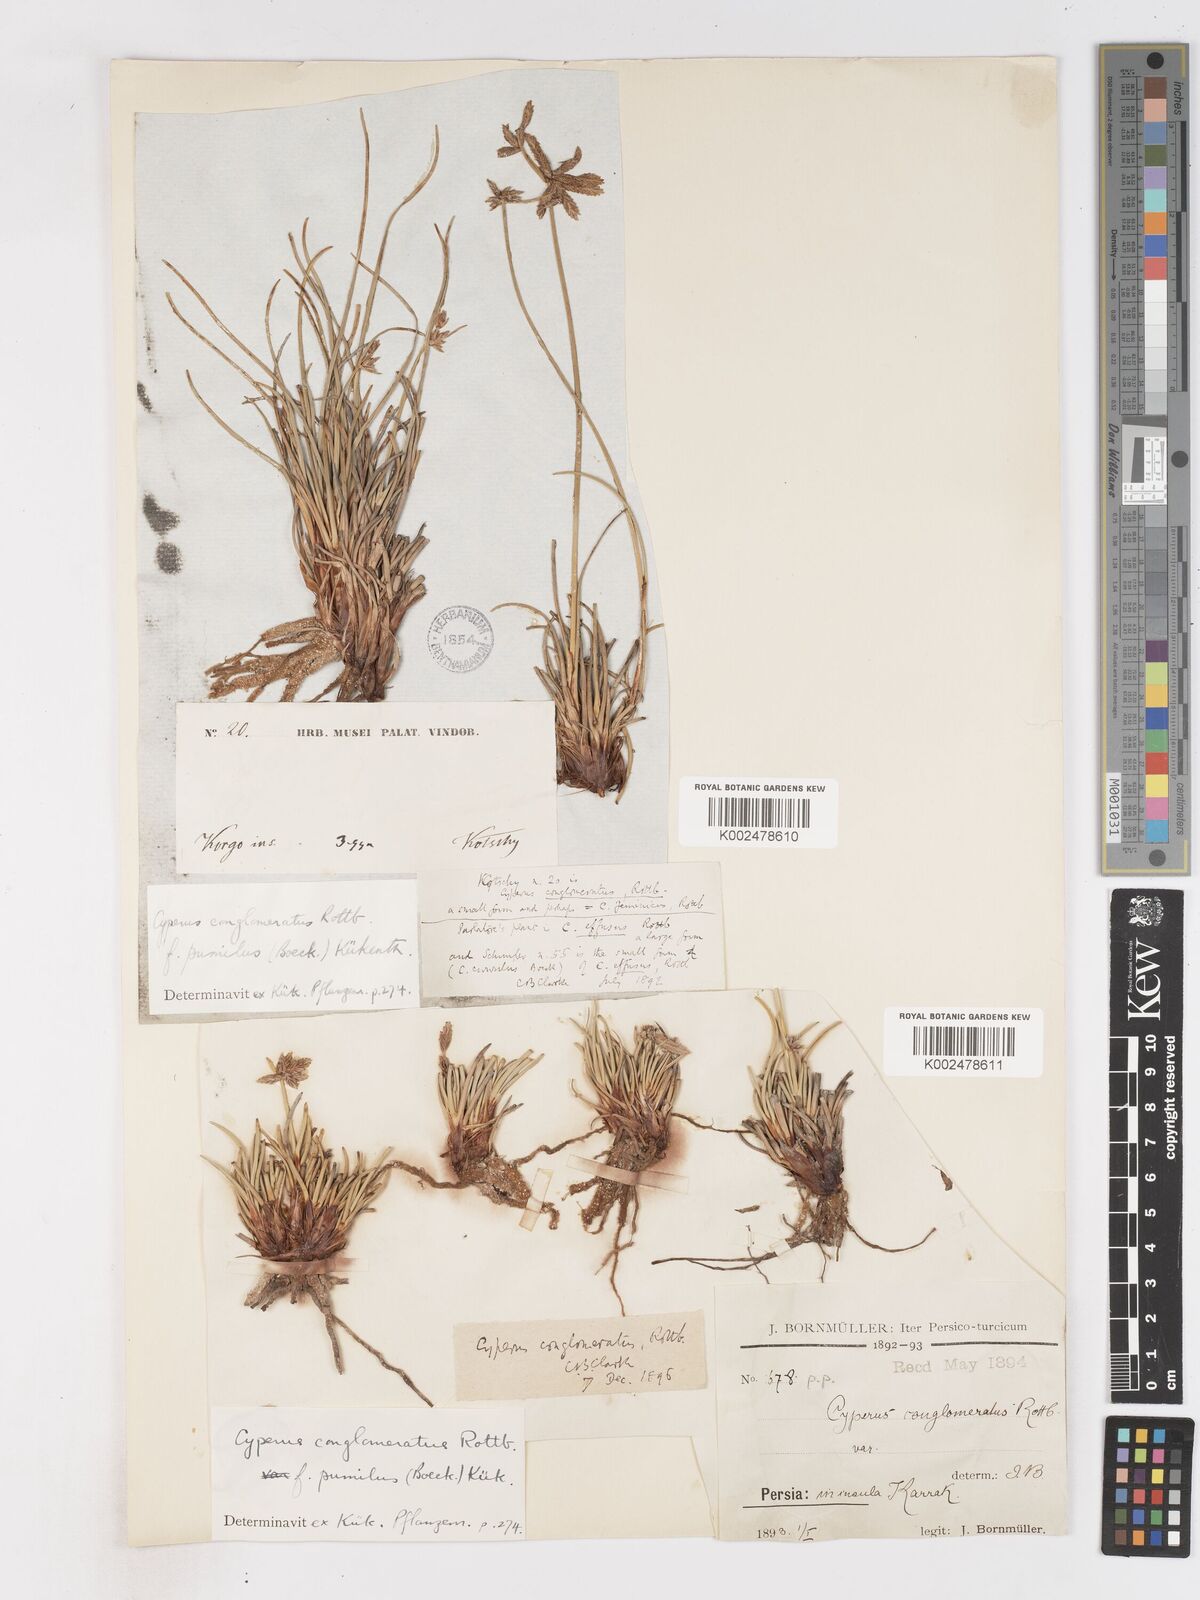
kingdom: Plantae
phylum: Tracheophyta
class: Liliopsida
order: Poales
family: Cyperaceae
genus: Cyperus
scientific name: Cyperus conglomeratus
